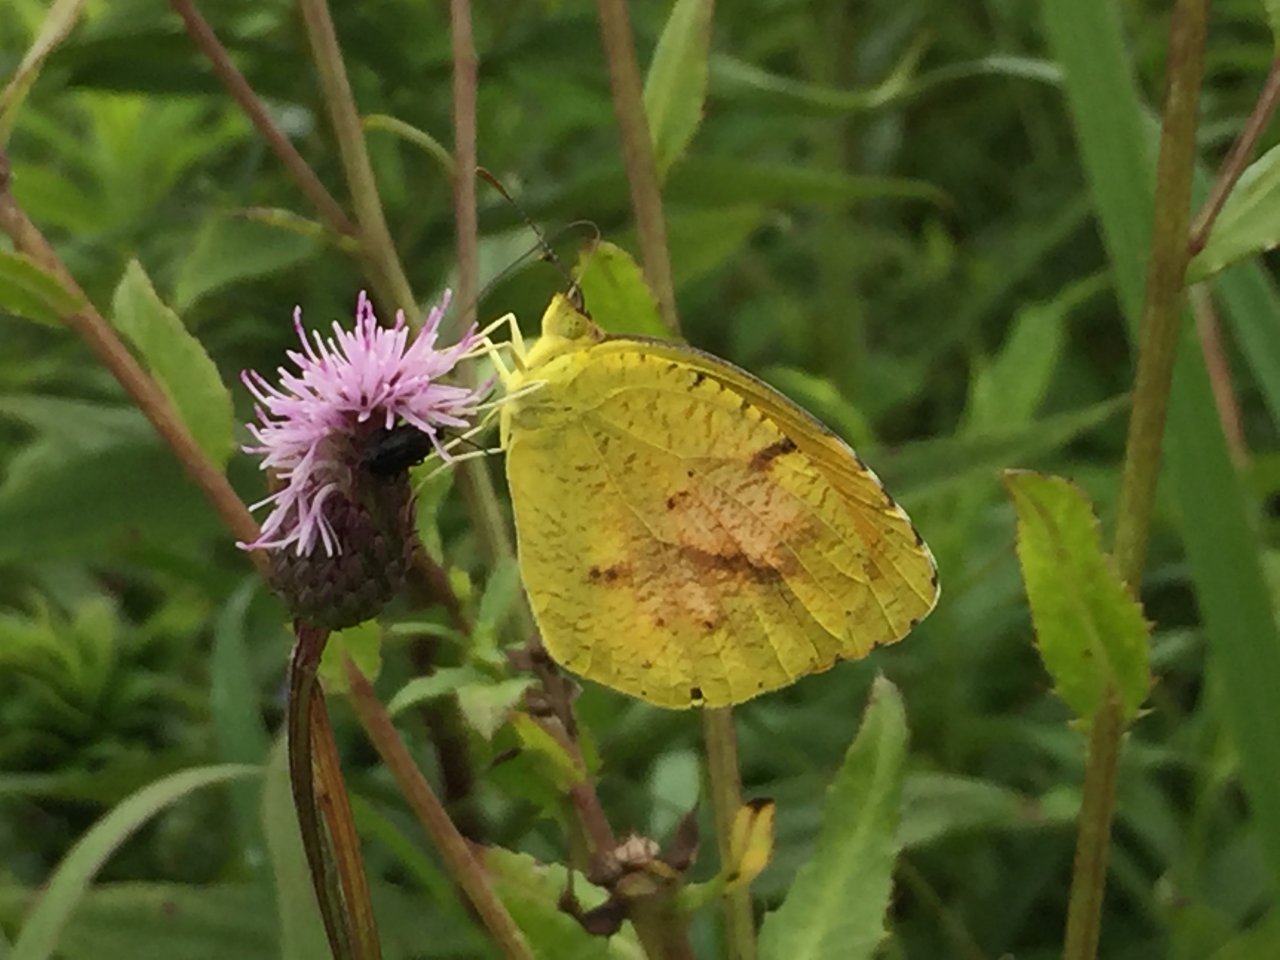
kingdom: Animalia
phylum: Arthropoda
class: Insecta
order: Lepidoptera
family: Pieridae
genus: Abaeis
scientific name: Abaeis nicippe
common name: Sleepy Orange
